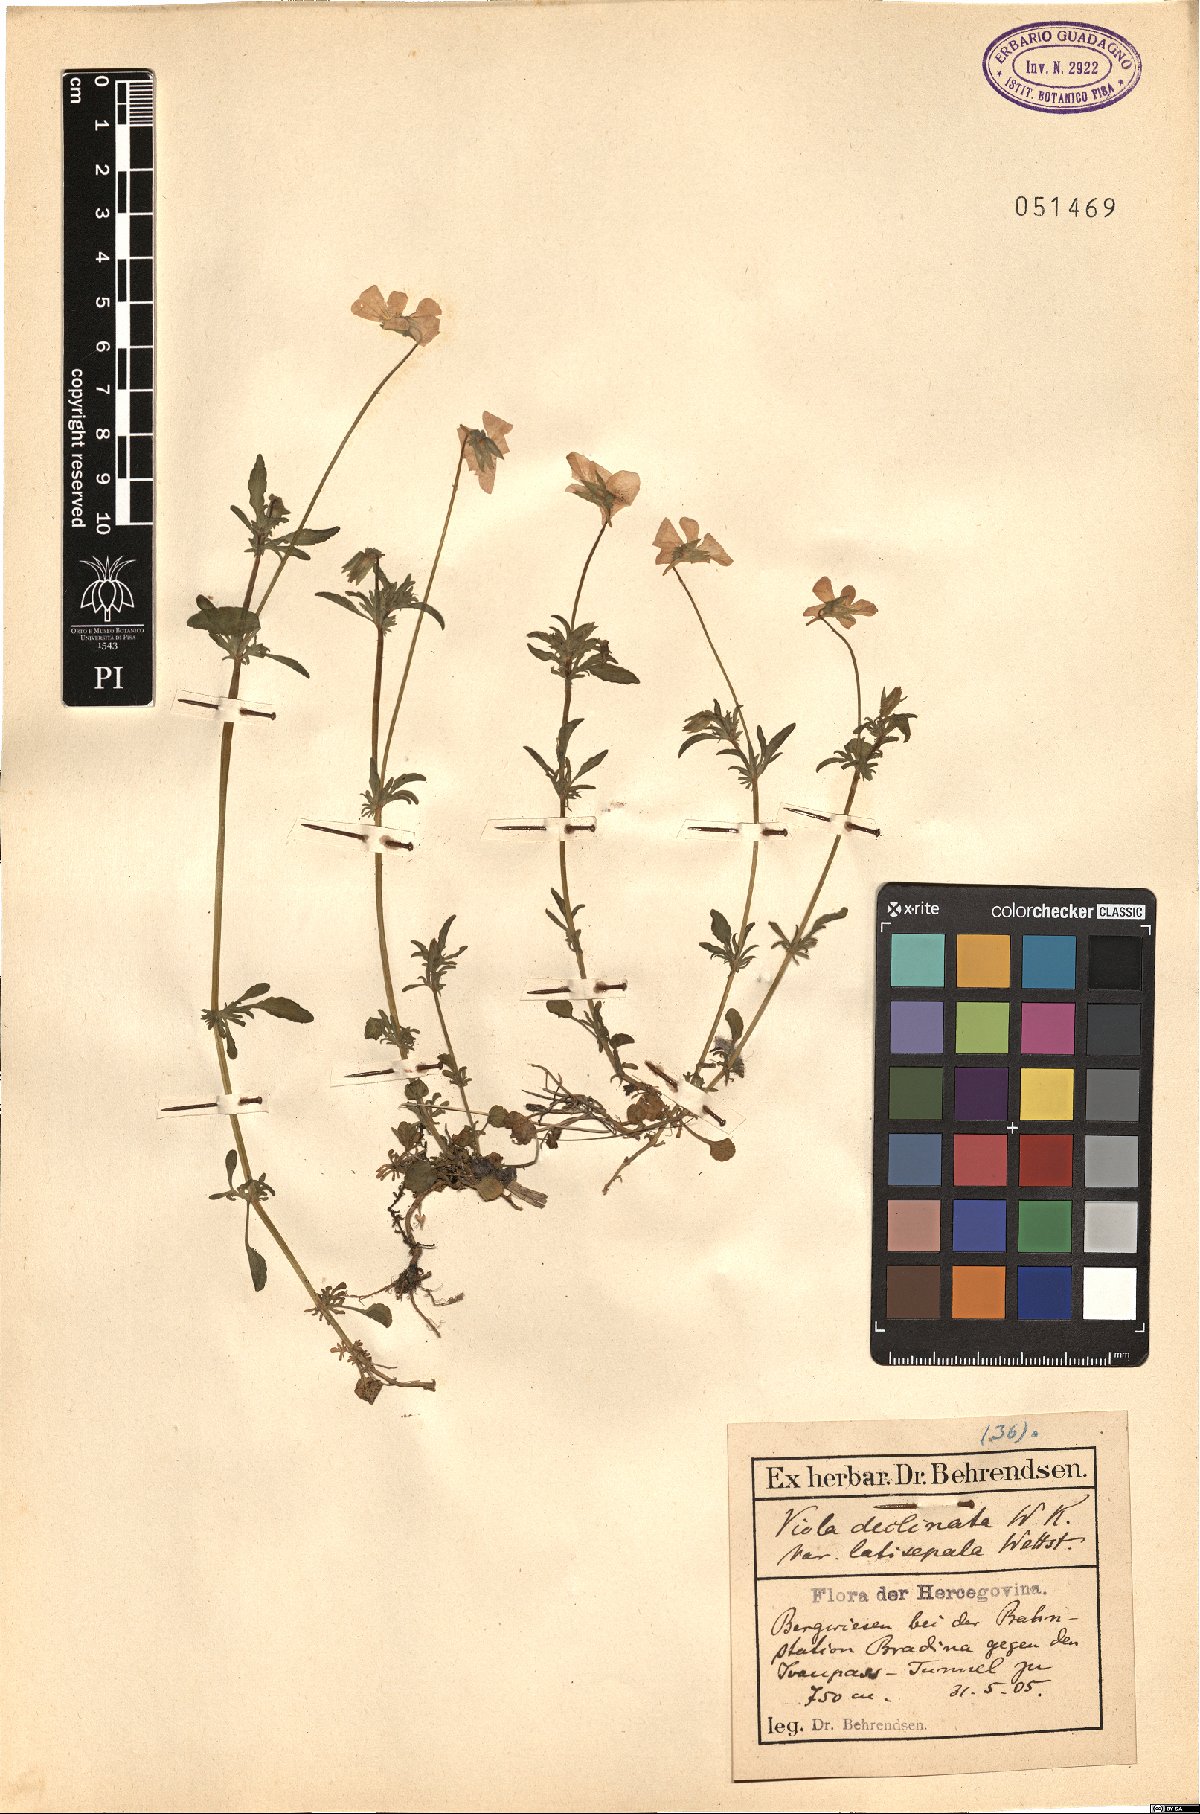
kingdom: Plantae
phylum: Tracheophyta
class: Magnoliopsida
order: Malpighiales
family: Violaceae
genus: Viola
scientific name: Viola declinata
